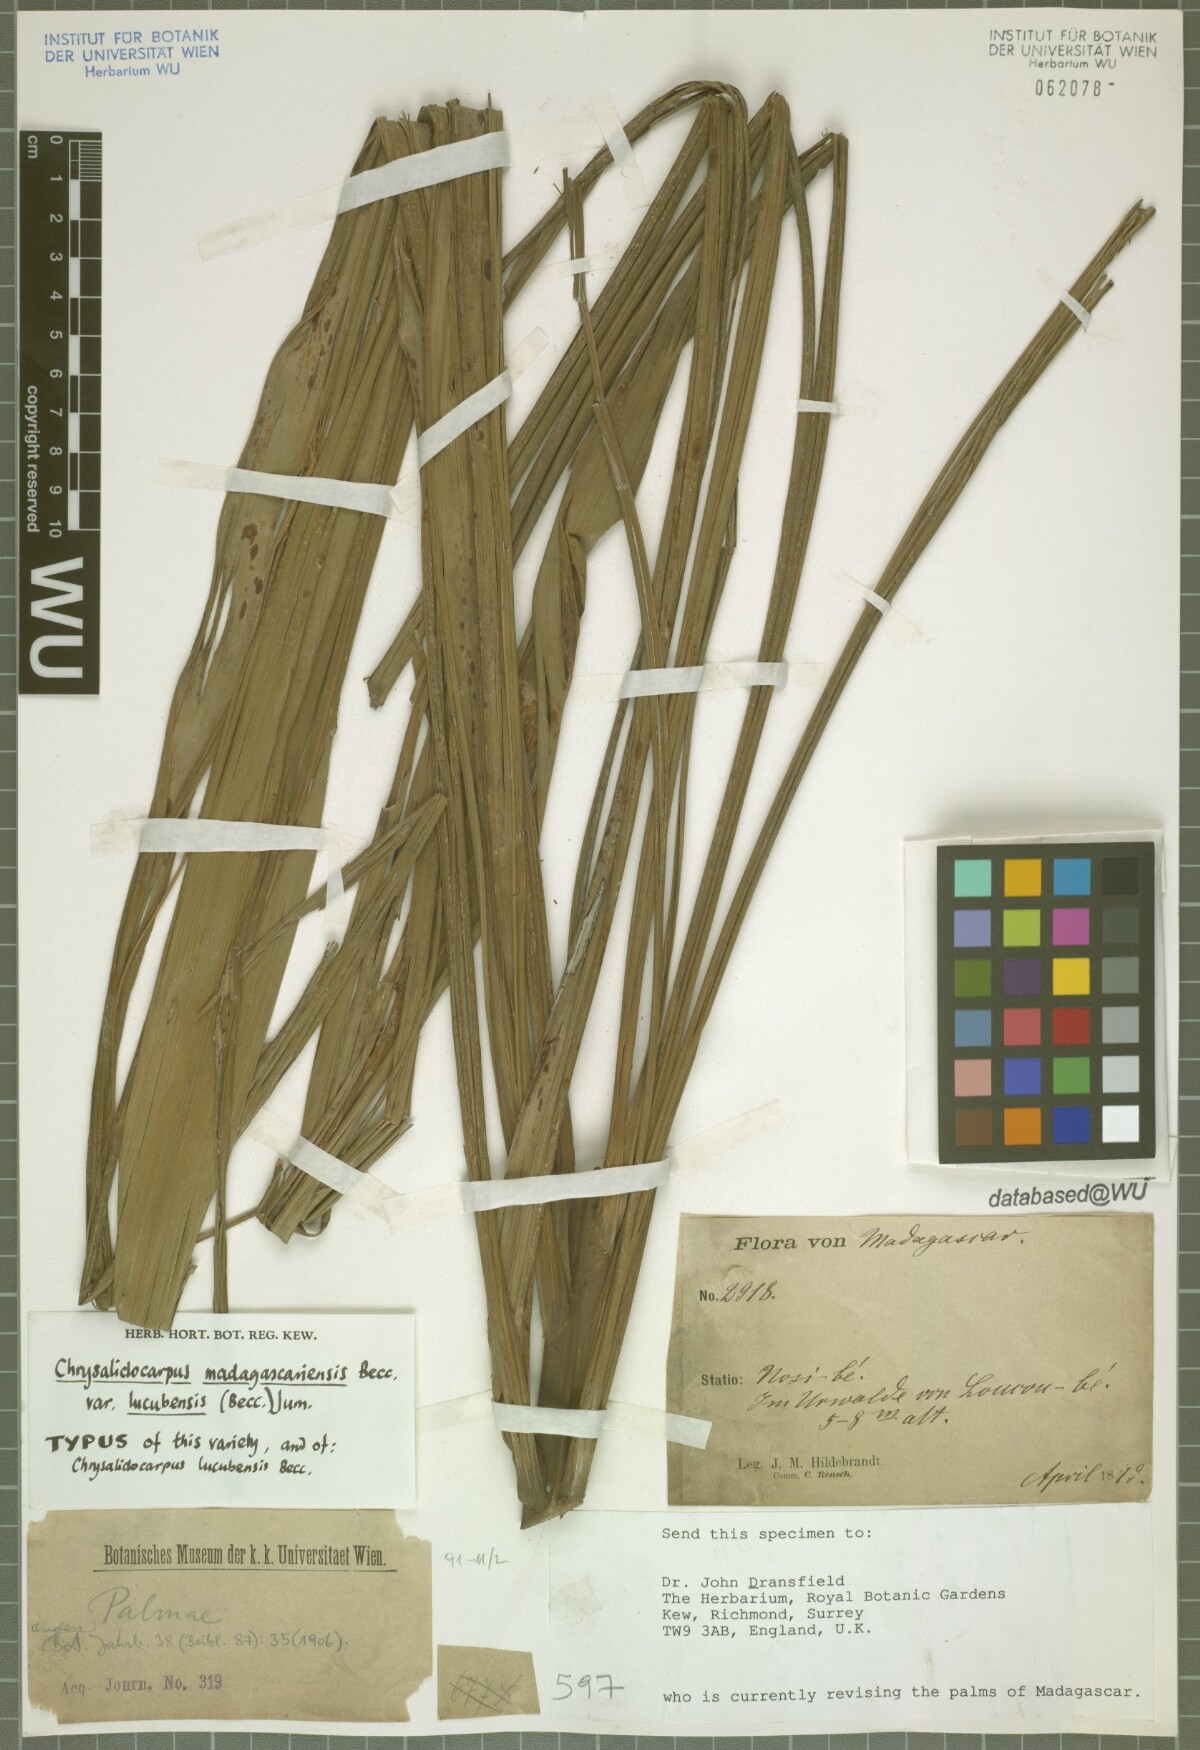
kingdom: Plantae
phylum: Tracheophyta
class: Liliopsida
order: Arecales
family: Arecaceae
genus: Dypsis
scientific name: Dypsis madagascariensis
